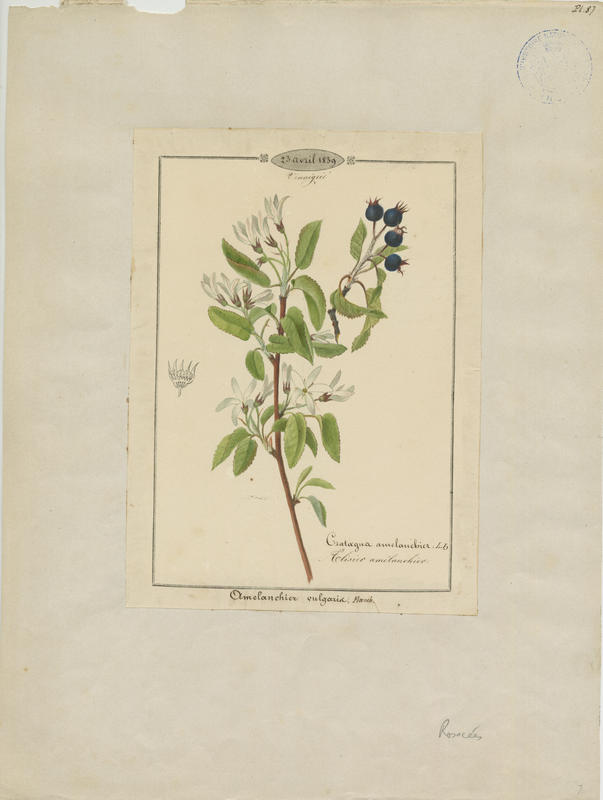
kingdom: Plantae
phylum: Tracheophyta
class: Magnoliopsida
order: Rosales
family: Rosaceae
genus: Amelanchier
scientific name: Amelanchier ovalis
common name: Serviceberry
